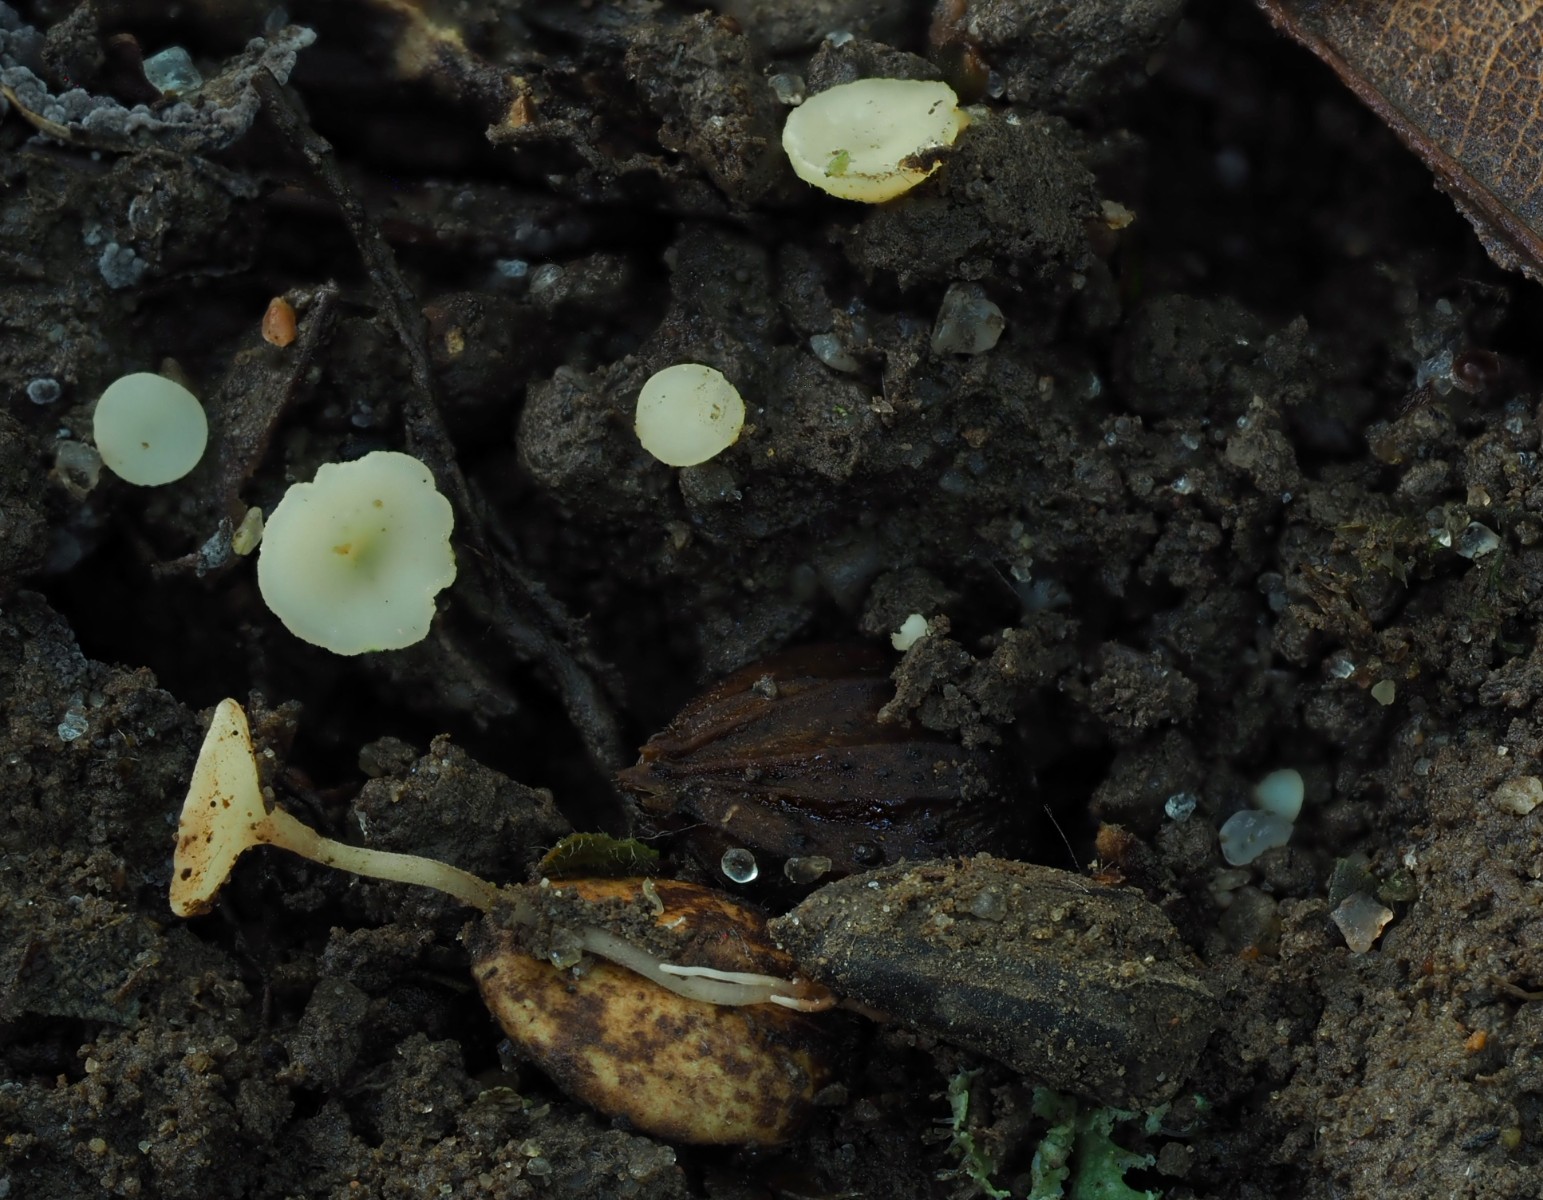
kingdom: Fungi
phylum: Ascomycota
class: Leotiomycetes
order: Helotiales
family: Helotiaceae
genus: Hymenoscyphus
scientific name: Hymenoscyphus carpini
